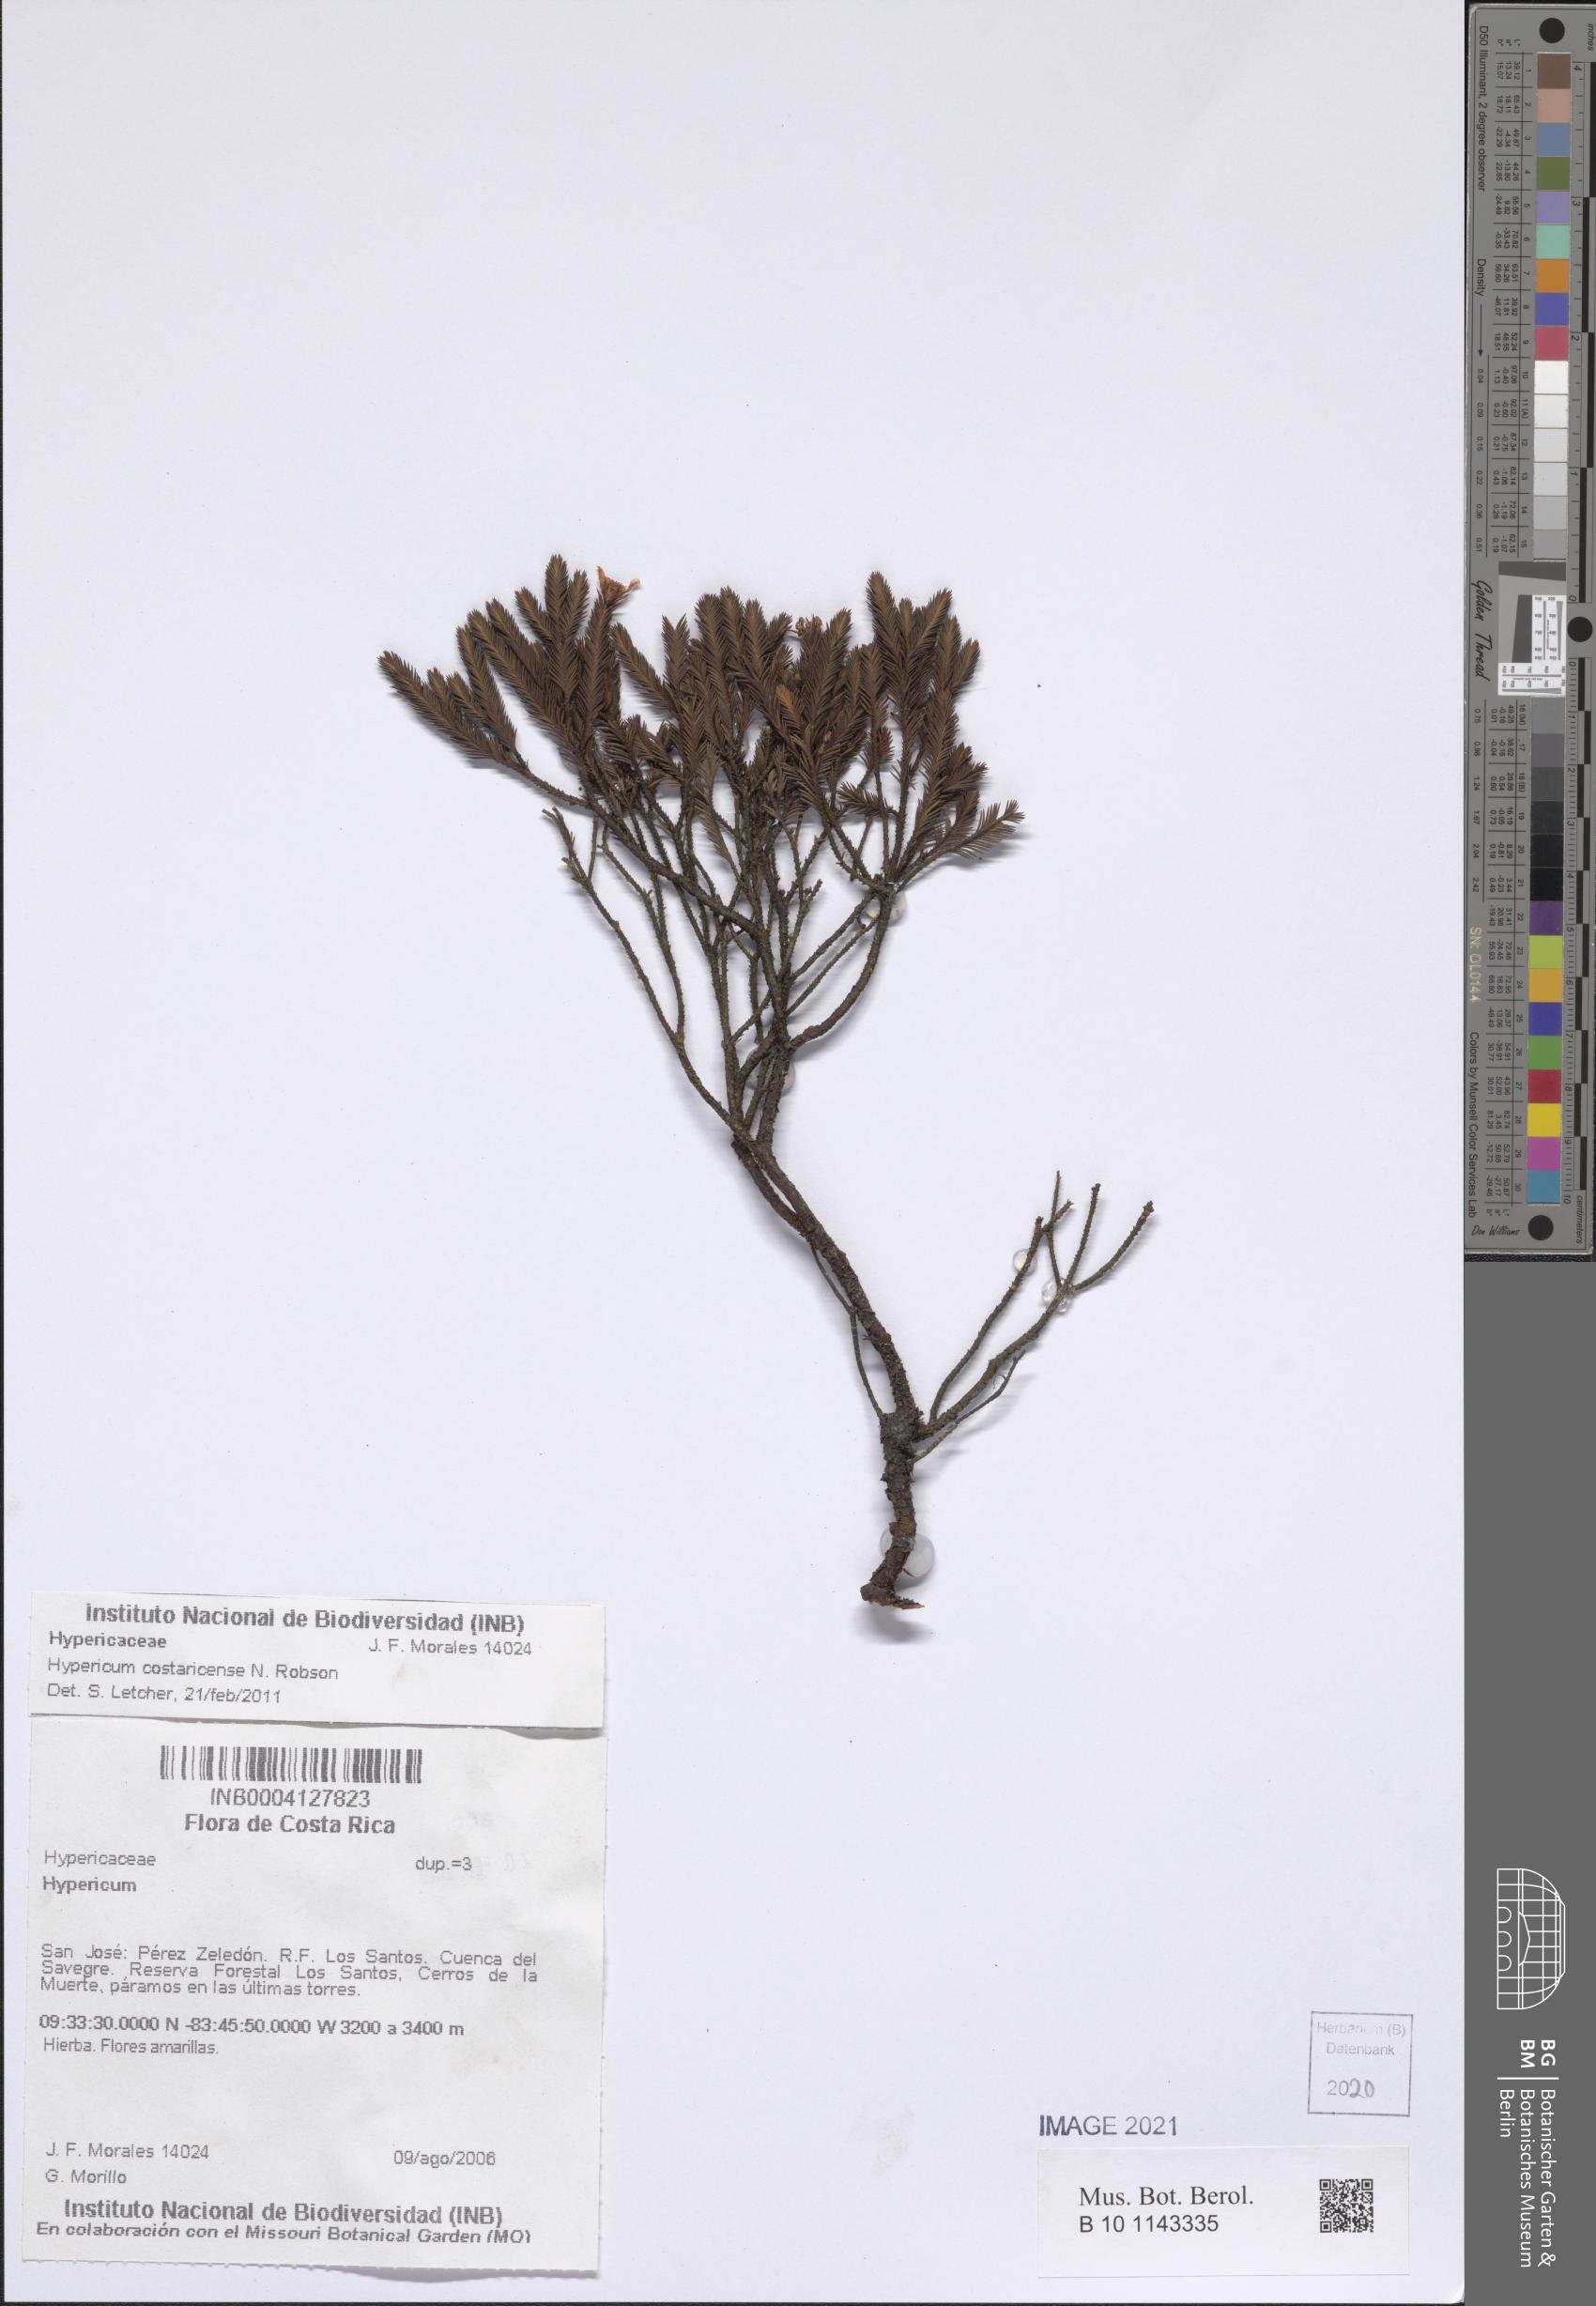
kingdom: Plantae
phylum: Tracheophyta
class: Magnoliopsida
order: Malpighiales
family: Hypericaceae
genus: Hypericum
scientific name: Hypericum costaricense
